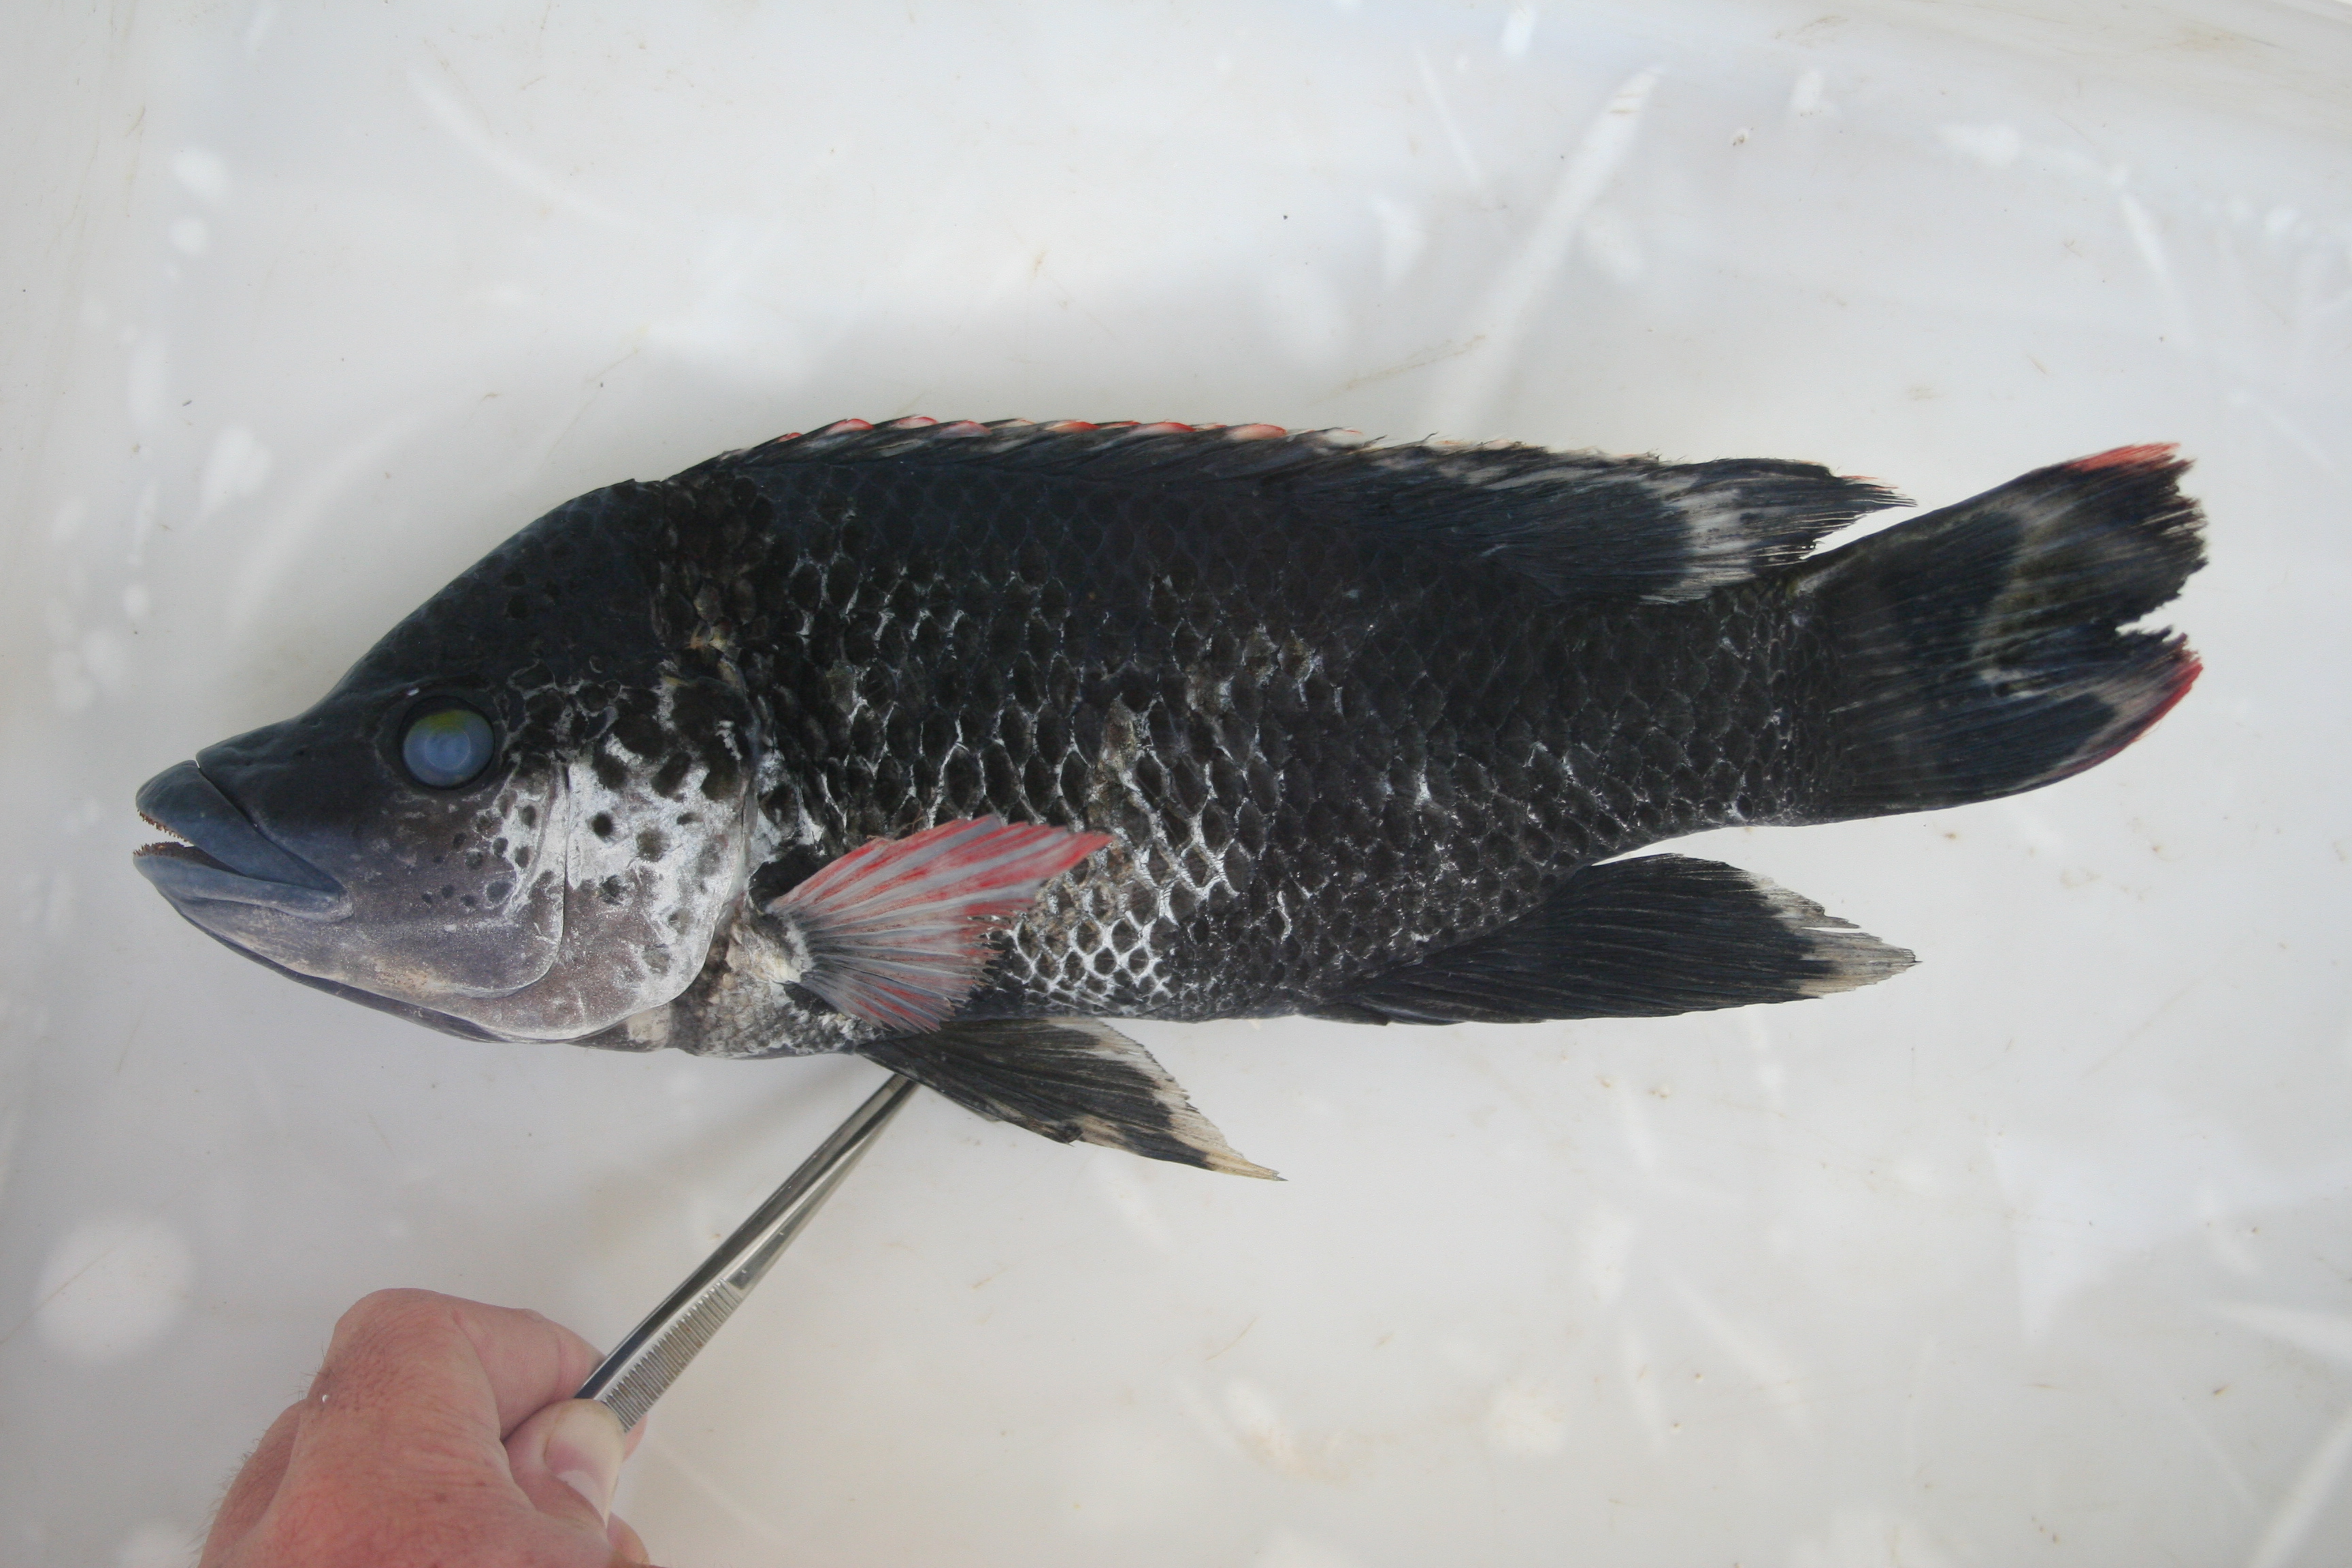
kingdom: Animalia
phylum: Chordata
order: Perciformes
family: Cichlidae
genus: Oreochromis
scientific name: Oreochromis
